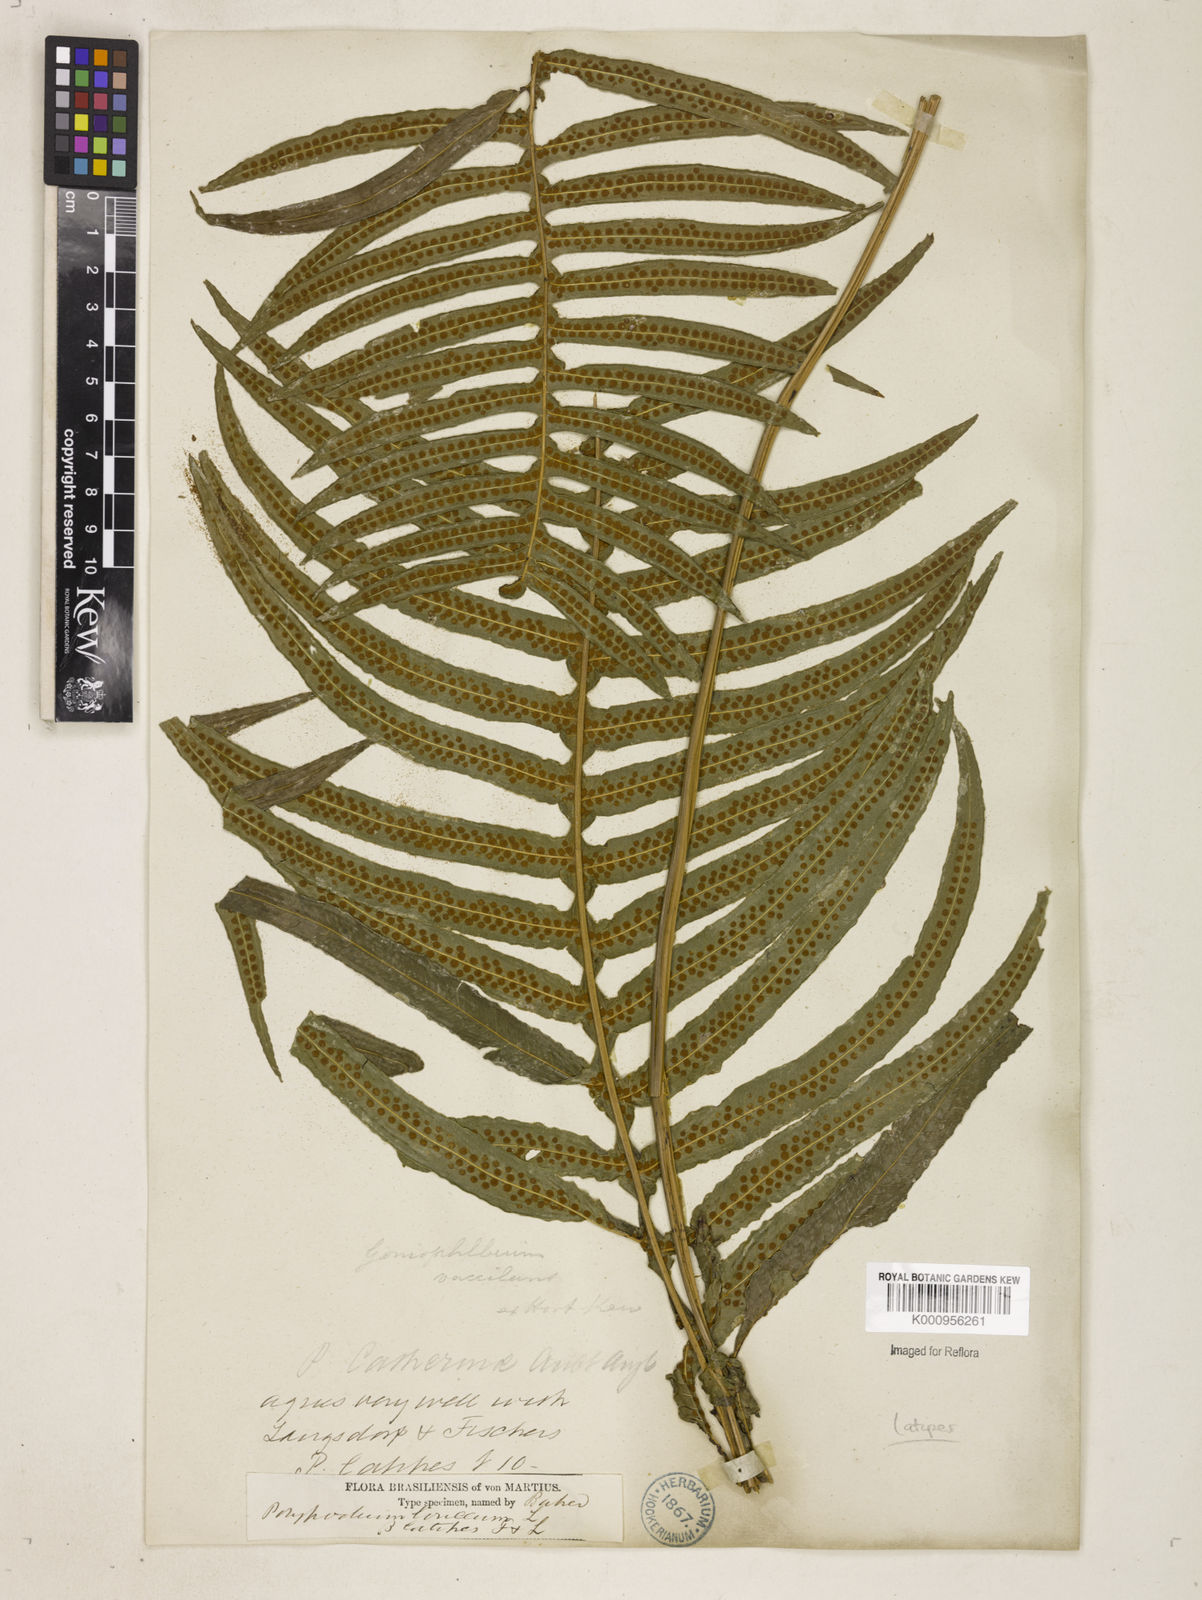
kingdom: Plantae
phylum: Tracheophyta
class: Polypodiopsida
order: Polypodiales
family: Polypodiaceae
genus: Serpocaulon
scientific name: Serpocaulon loriceum
